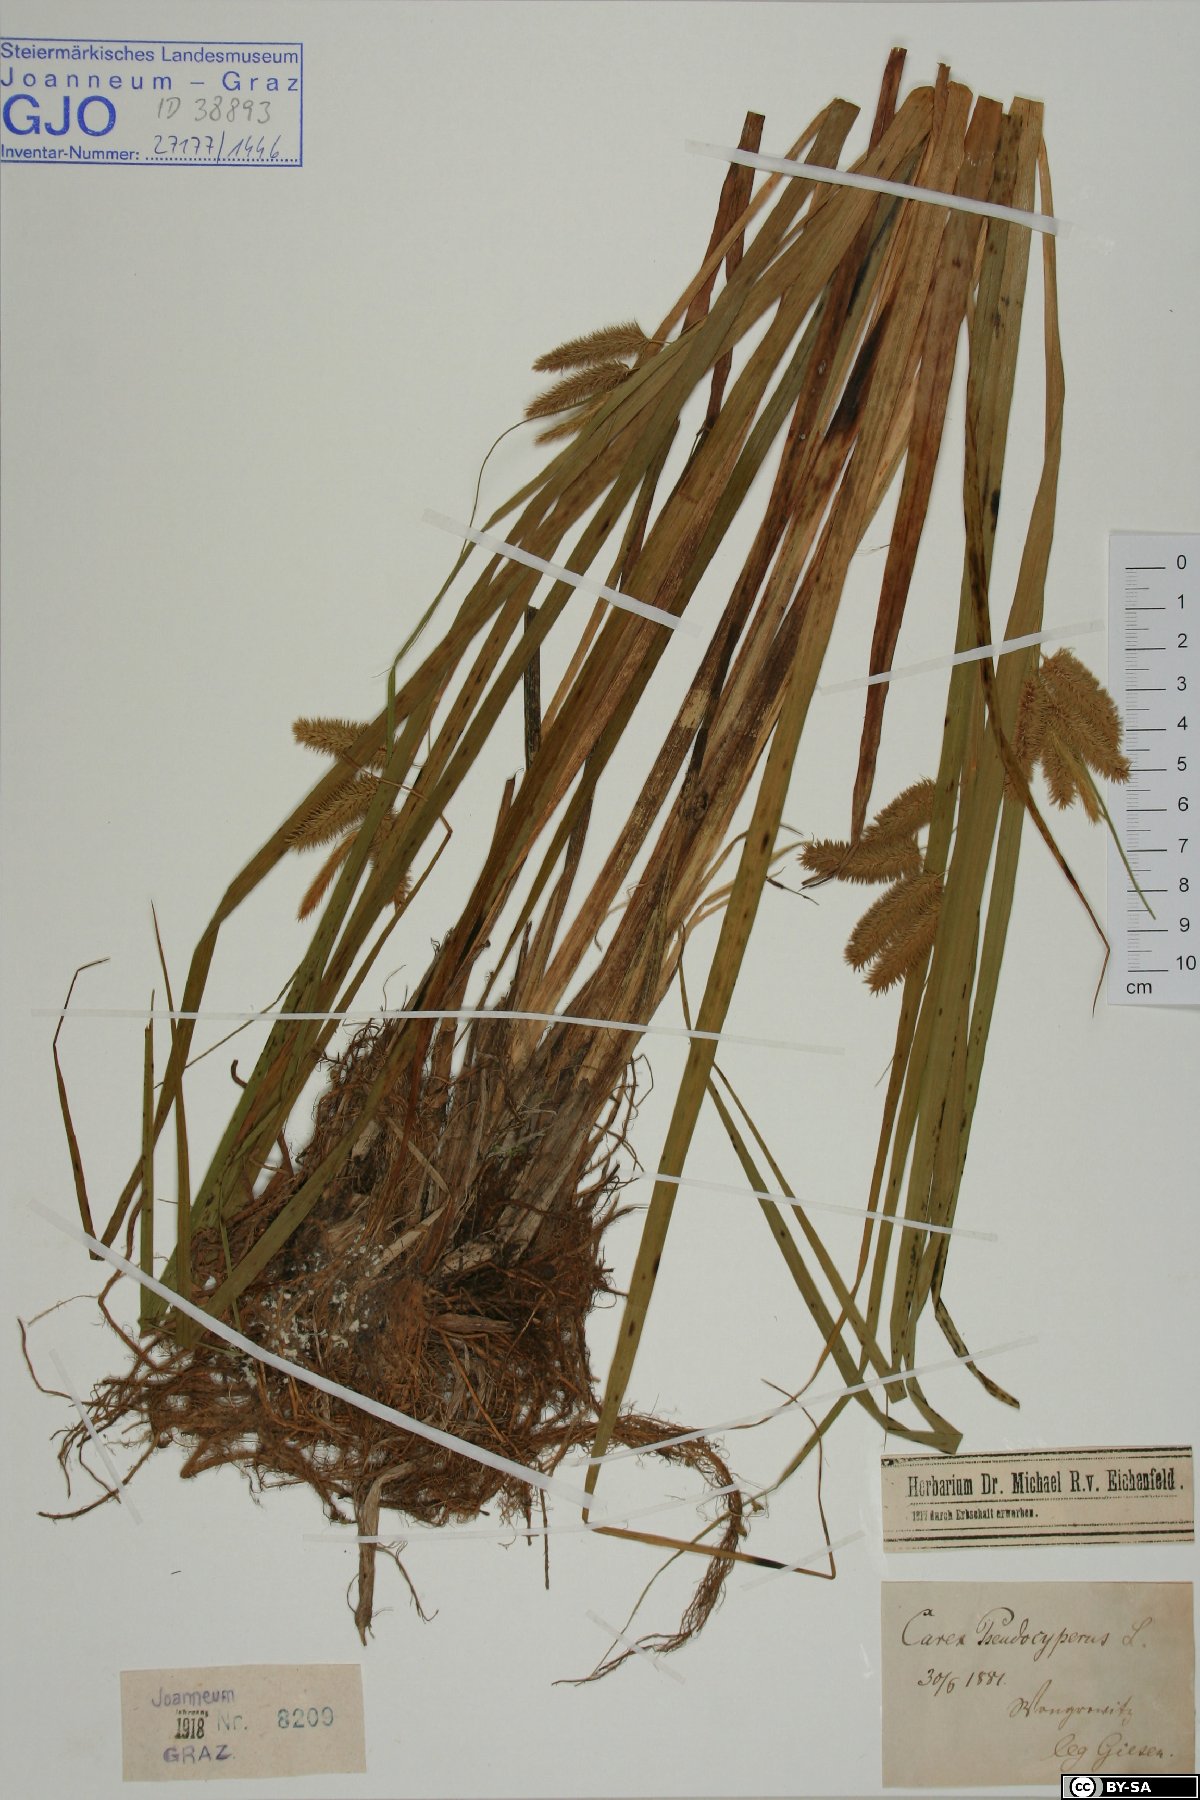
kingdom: Plantae
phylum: Tracheophyta
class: Liliopsida
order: Poales
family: Cyperaceae
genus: Carex
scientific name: Carex pseudocyperus
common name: Cyperus sedge
